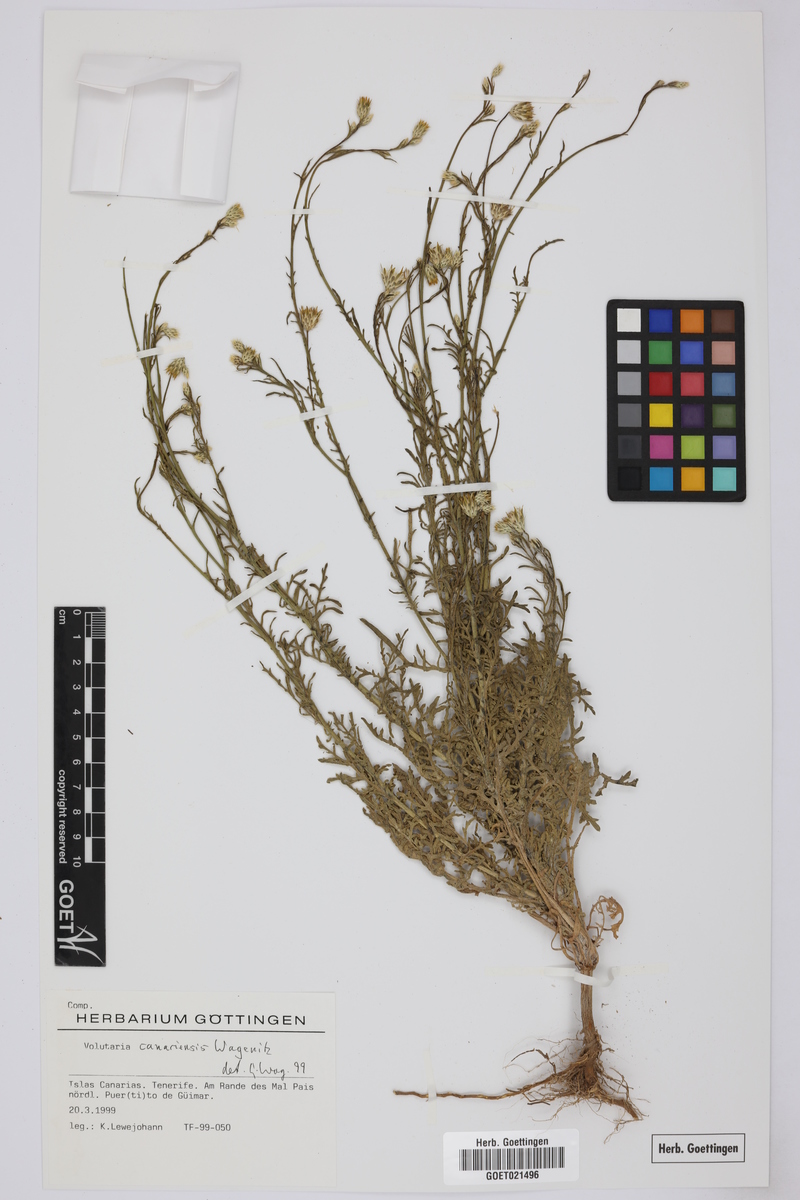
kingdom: Plantae
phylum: Tracheophyta
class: Magnoliopsida
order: Asterales
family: Asteraceae
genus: Volutaria
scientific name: Volutaria canariensis
